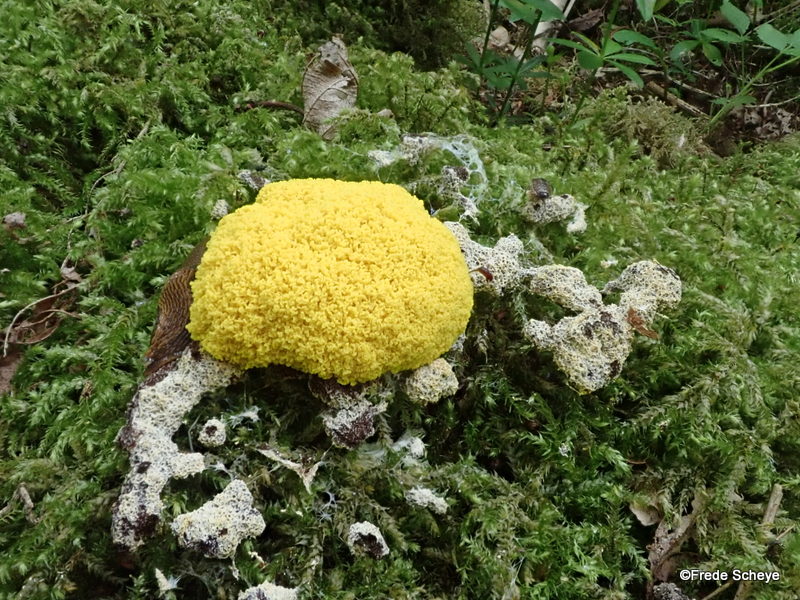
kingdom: Protozoa
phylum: Mycetozoa
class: Myxomycetes
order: Physarales
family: Physaraceae
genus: Fuligo
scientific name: Fuligo septica
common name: gul troldsmør
